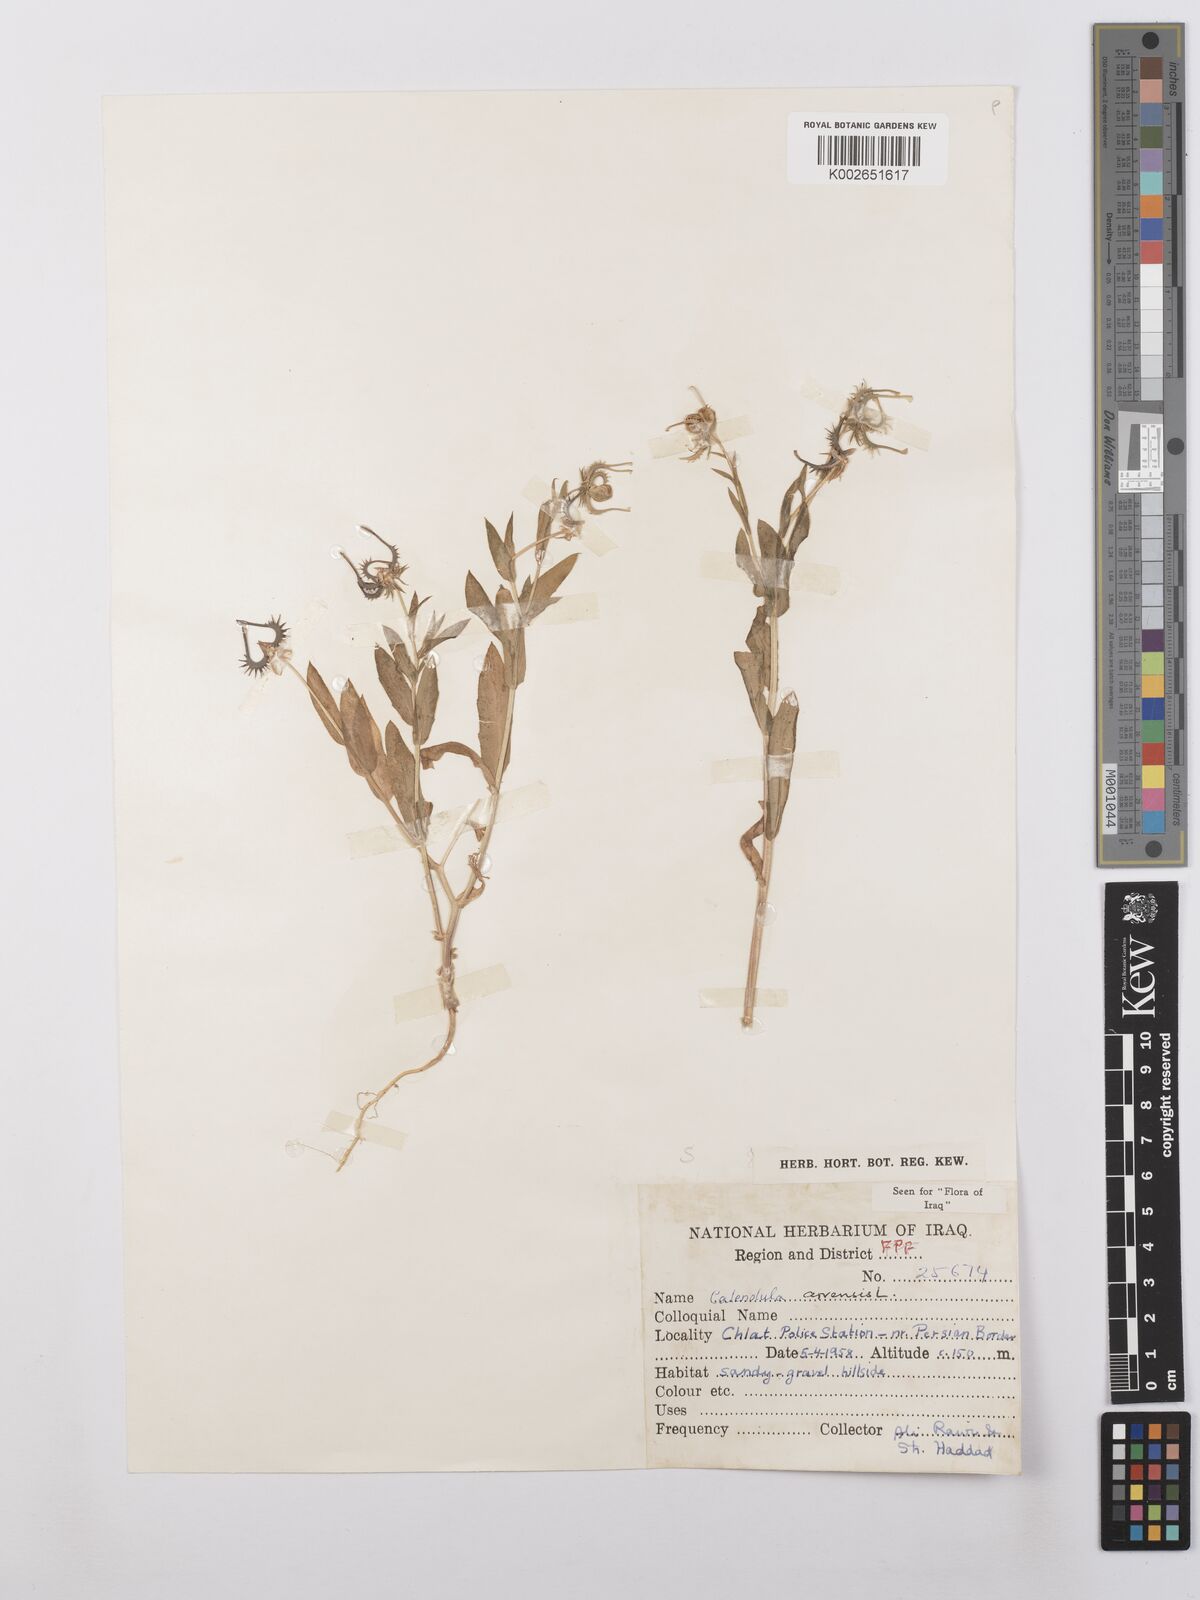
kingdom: Plantae
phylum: Tracheophyta
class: Magnoliopsida
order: Asterales
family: Asteraceae
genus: Calendula
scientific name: Calendula arvensis
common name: Field marigold
